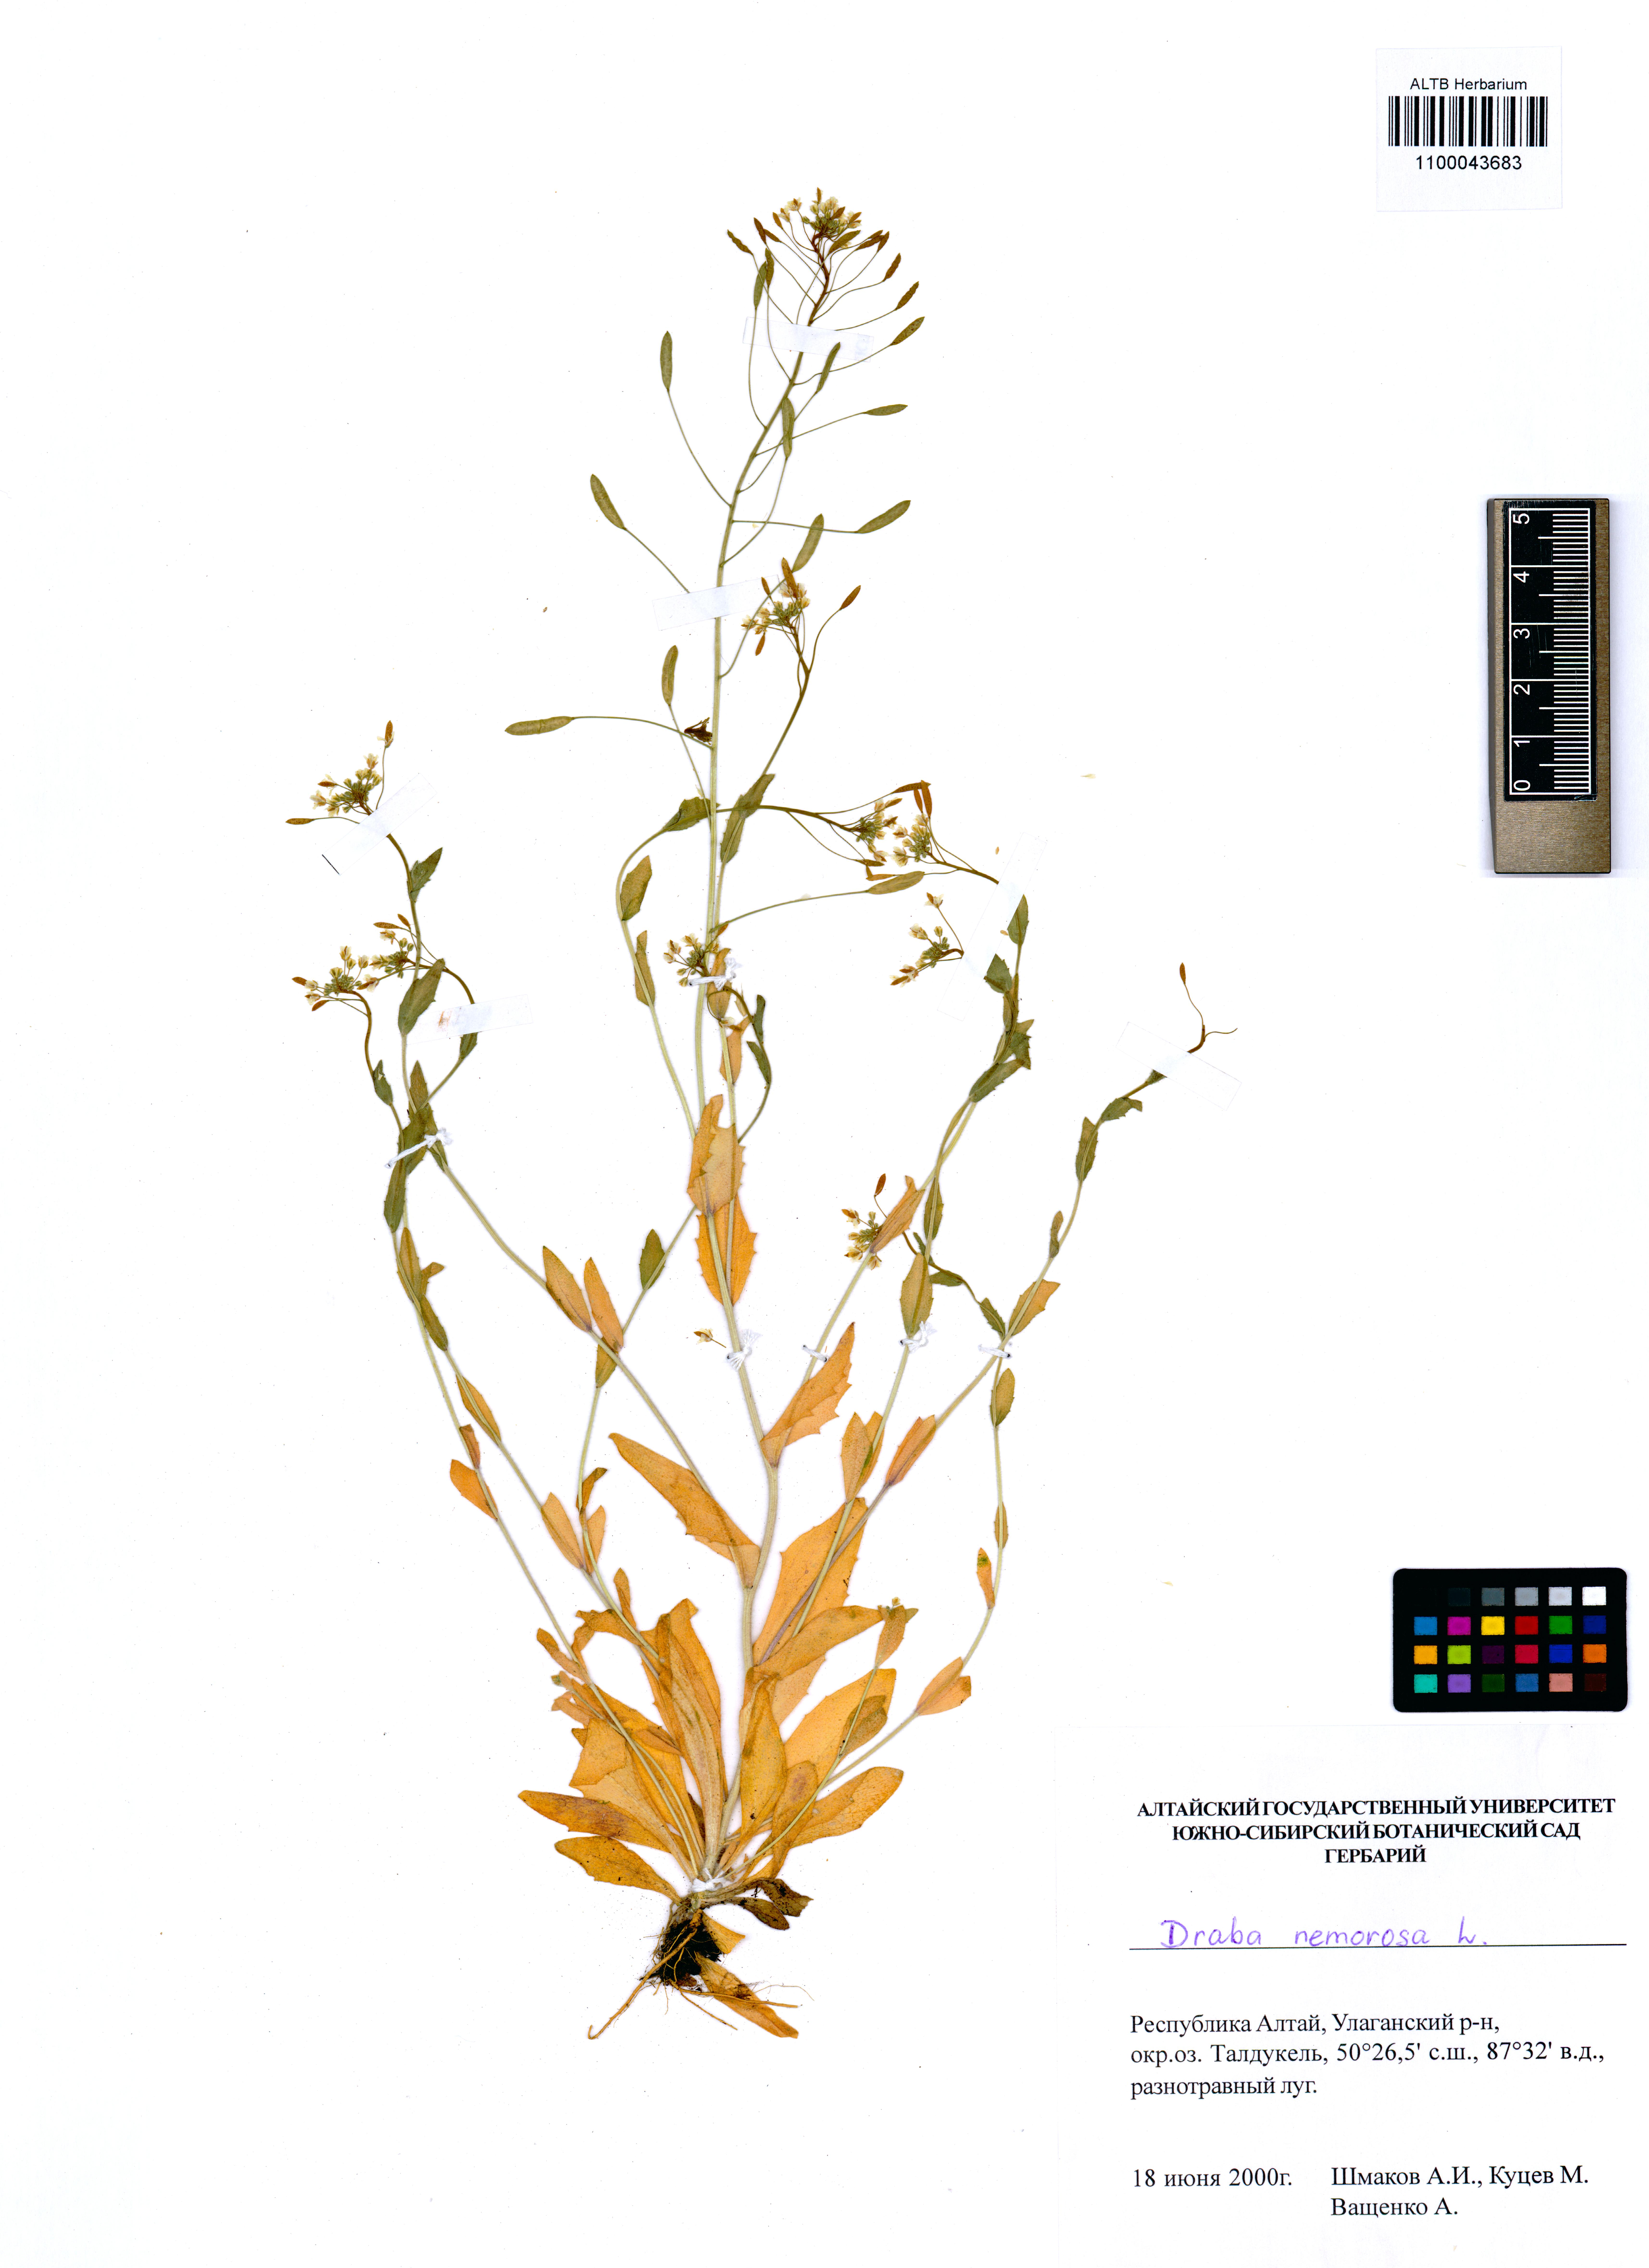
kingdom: Plantae
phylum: Tracheophyta
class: Magnoliopsida
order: Brassicales
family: Brassicaceae
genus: Draba
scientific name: Draba nemorosa
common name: Wood whitlow-grass
